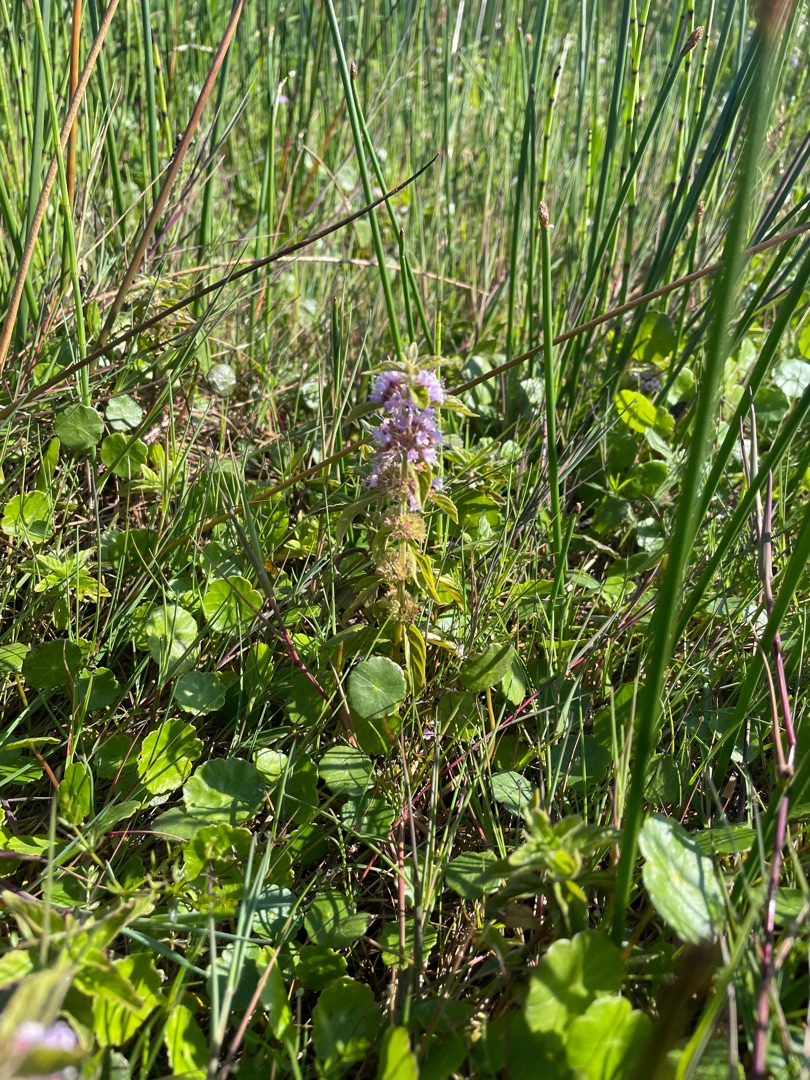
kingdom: Plantae
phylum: Tracheophyta
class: Magnoliopsida
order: Lamiales
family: Lamiaceae
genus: Mentha
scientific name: Mentha arvensis
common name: Ager-mynte
